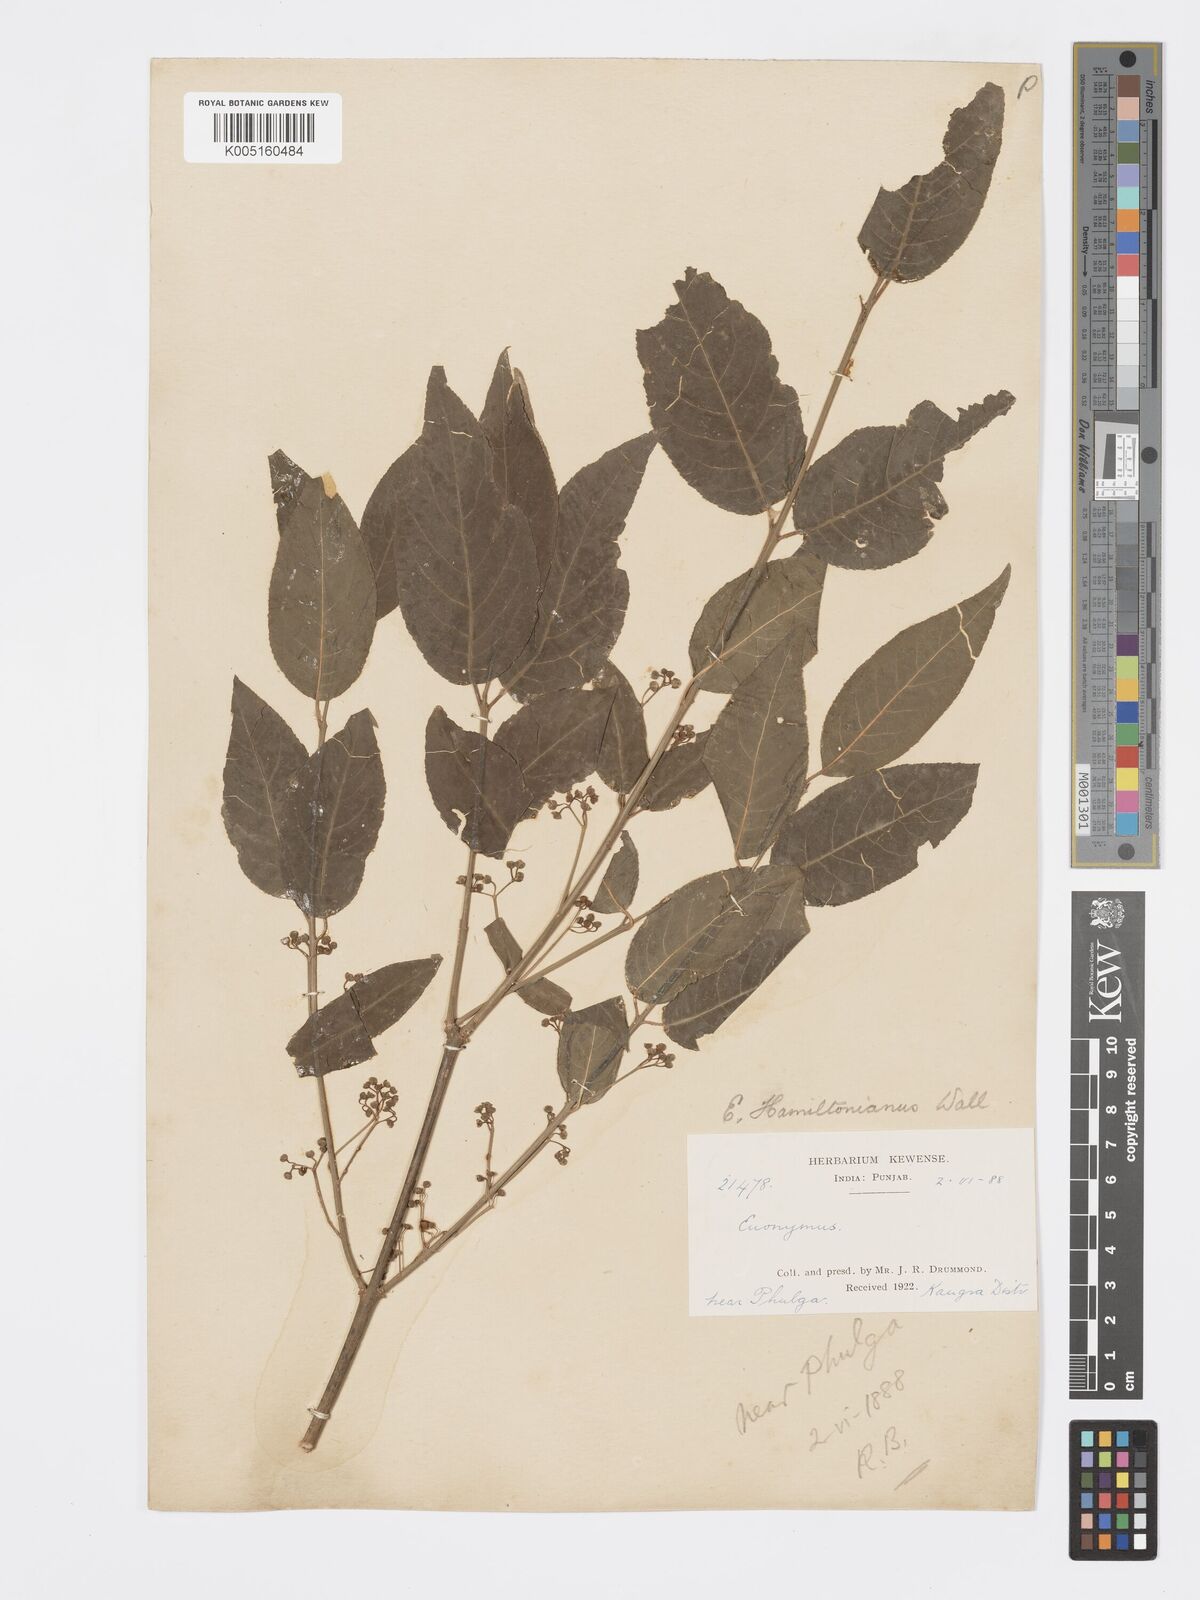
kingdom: Plantae
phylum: Tracheophyta
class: Magnoliopsida
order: Celastrales
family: Celastraceae
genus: Euonymus
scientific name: Euonymus
